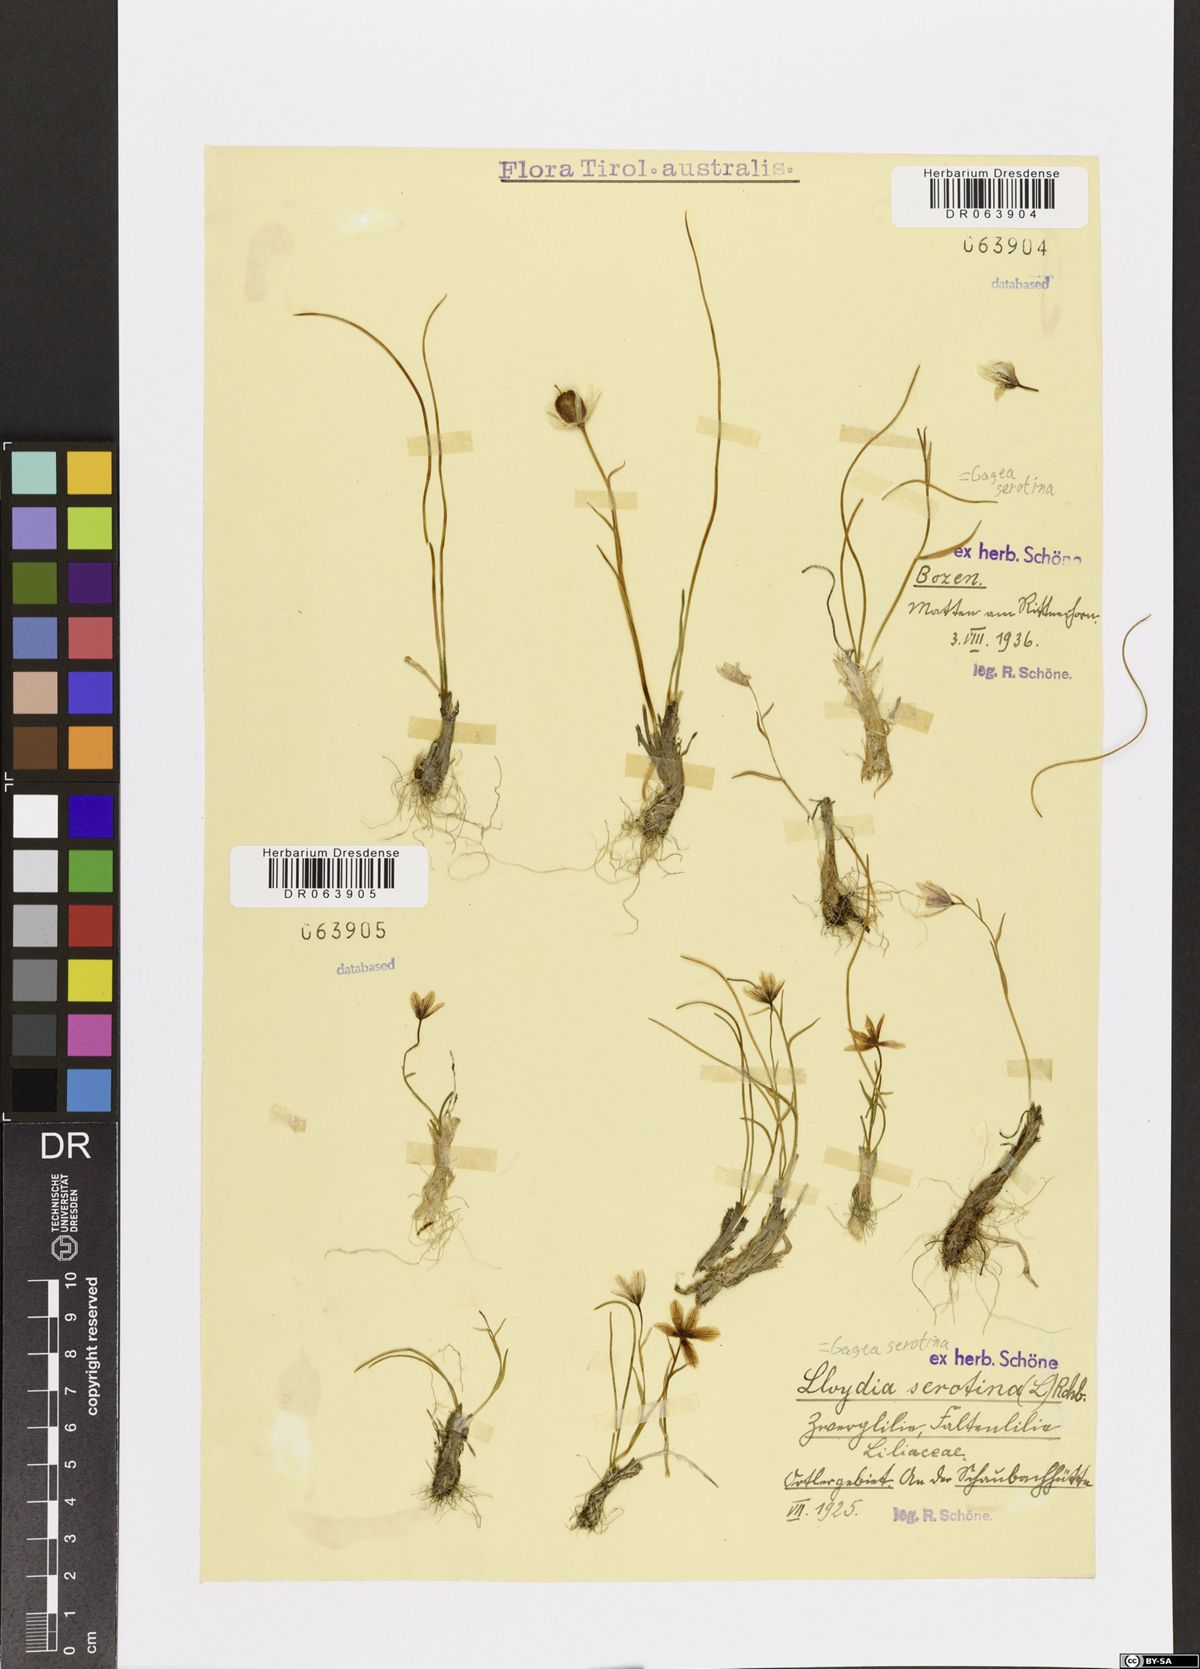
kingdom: Plantae
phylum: Tracheophyta
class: Liliopsida
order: Liliales
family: Liliaceae
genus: Gagea
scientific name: Gagea serotina
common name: Snowdon lily
